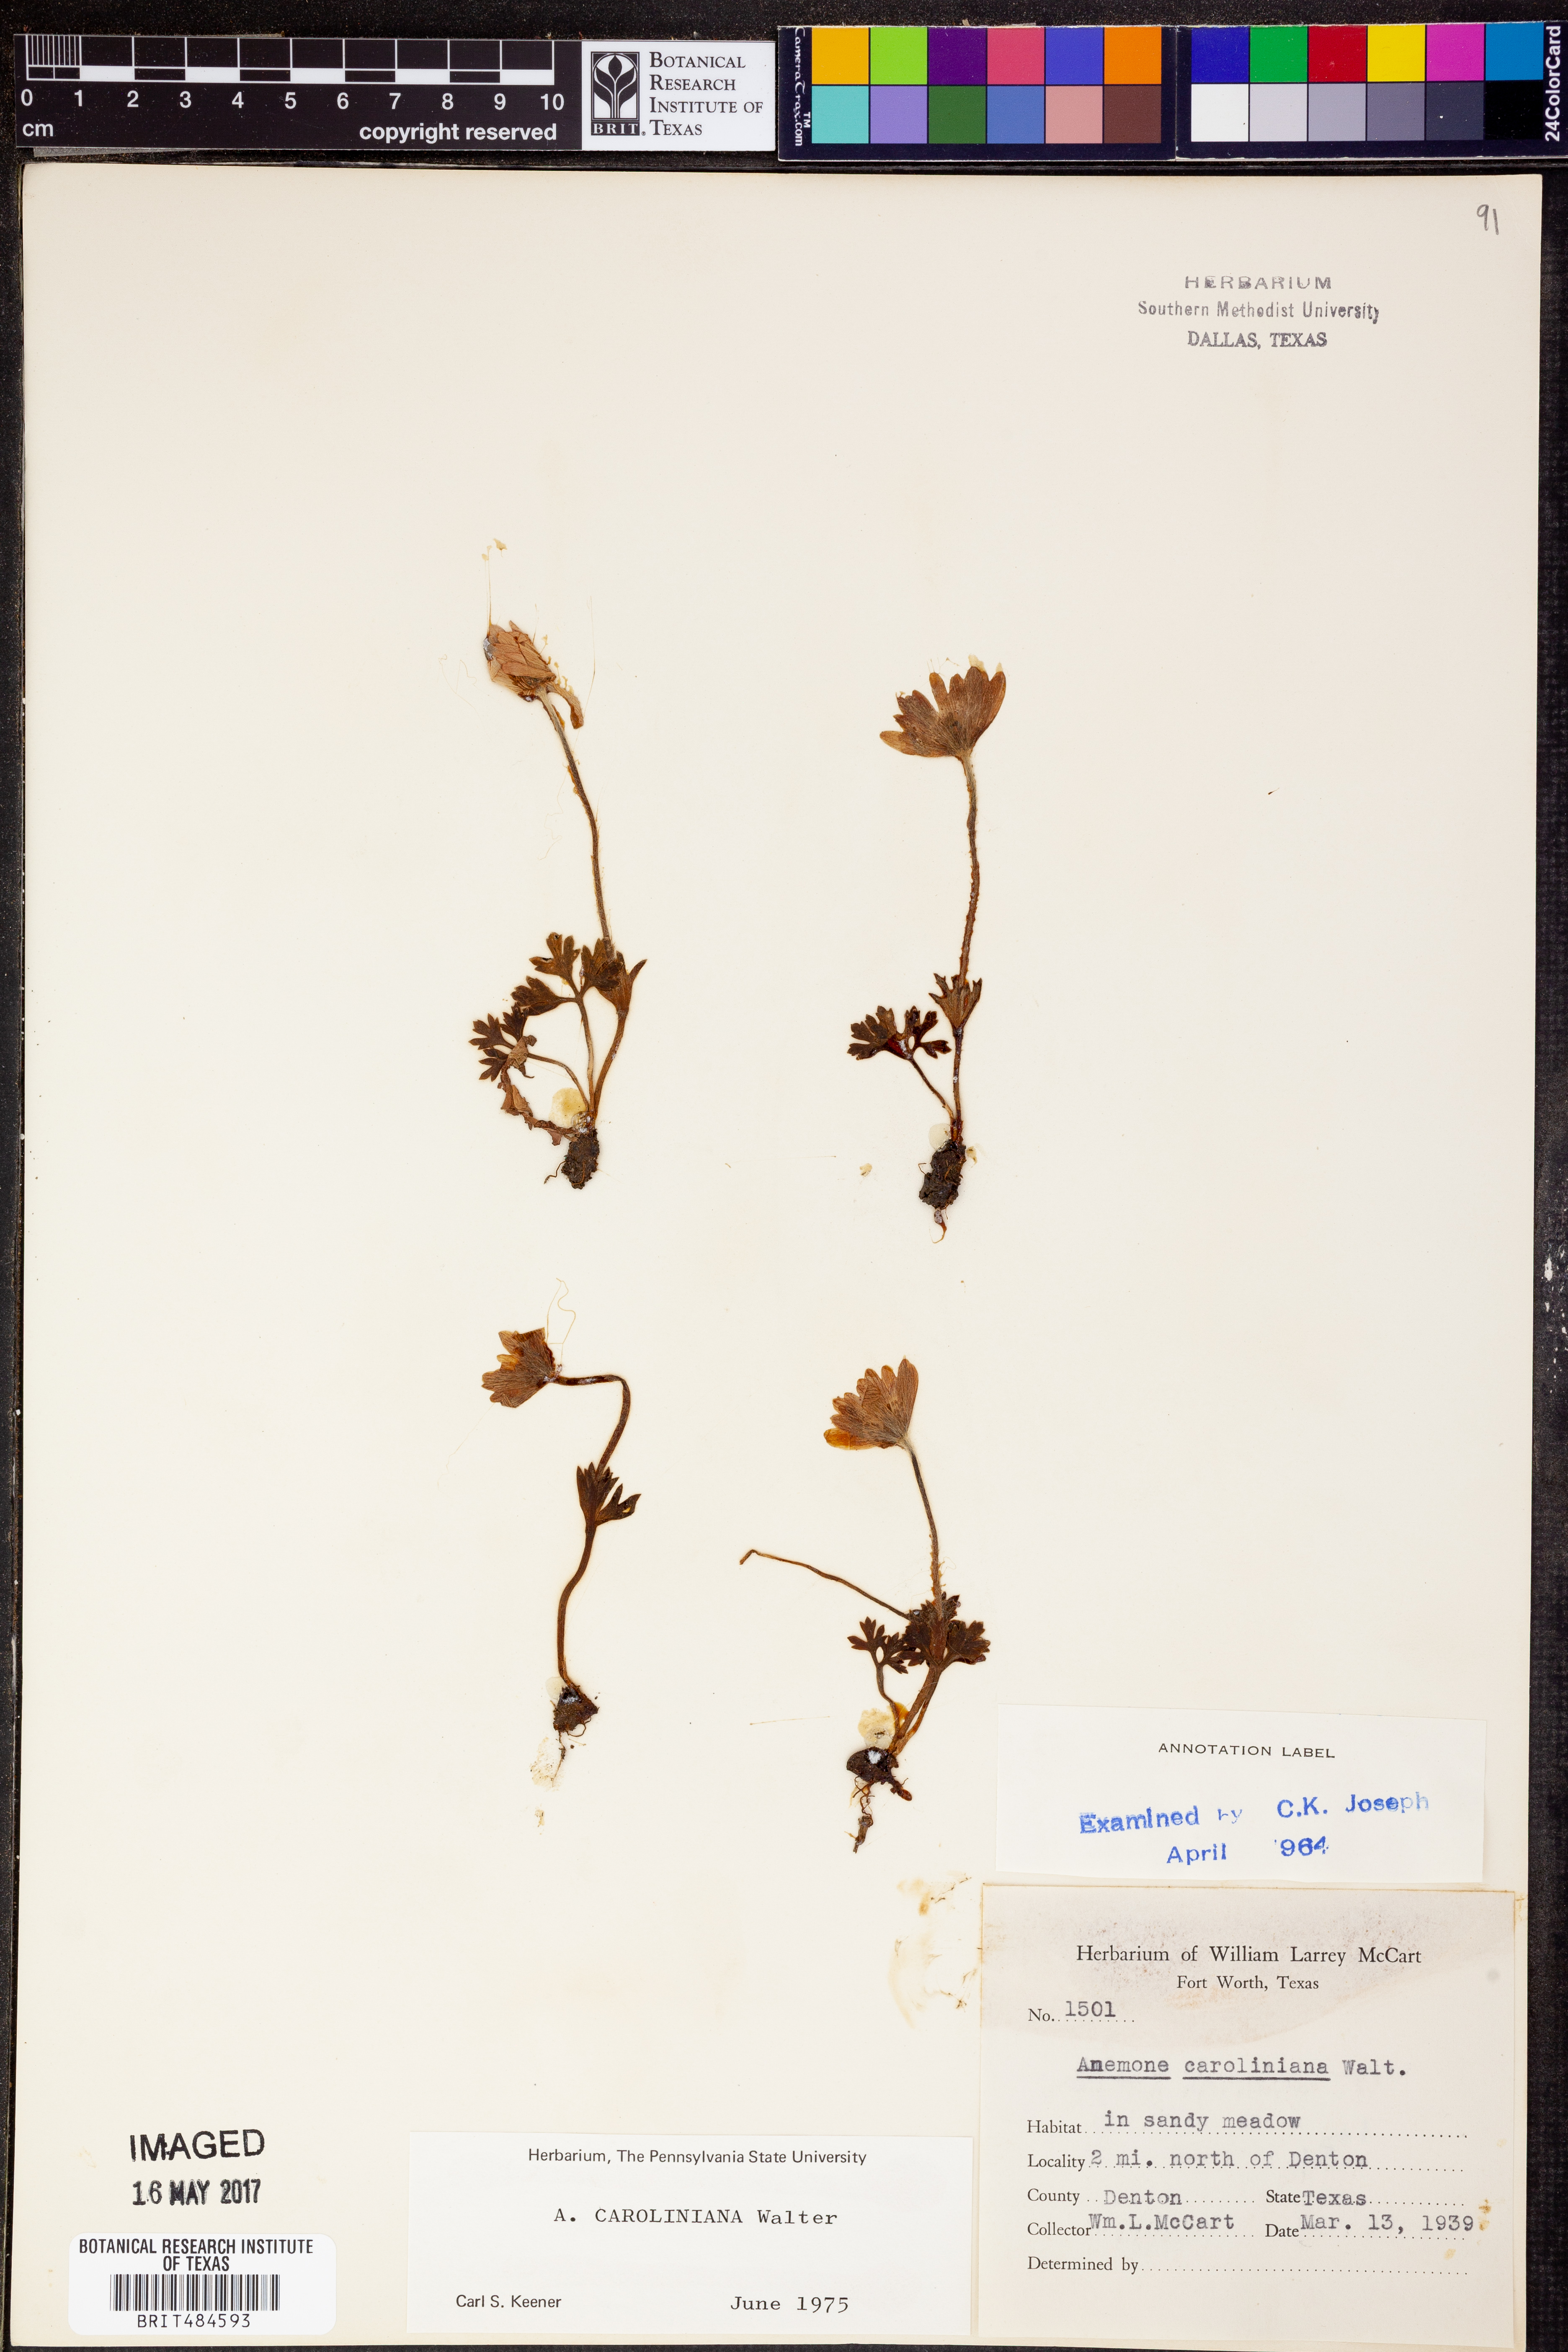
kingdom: Plantae
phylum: Tracheophyta
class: Magnoliopsida
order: Ranunculales
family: Ranunculaceae
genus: Anemone
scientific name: Anemone caroliniana
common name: Carolina anemone
